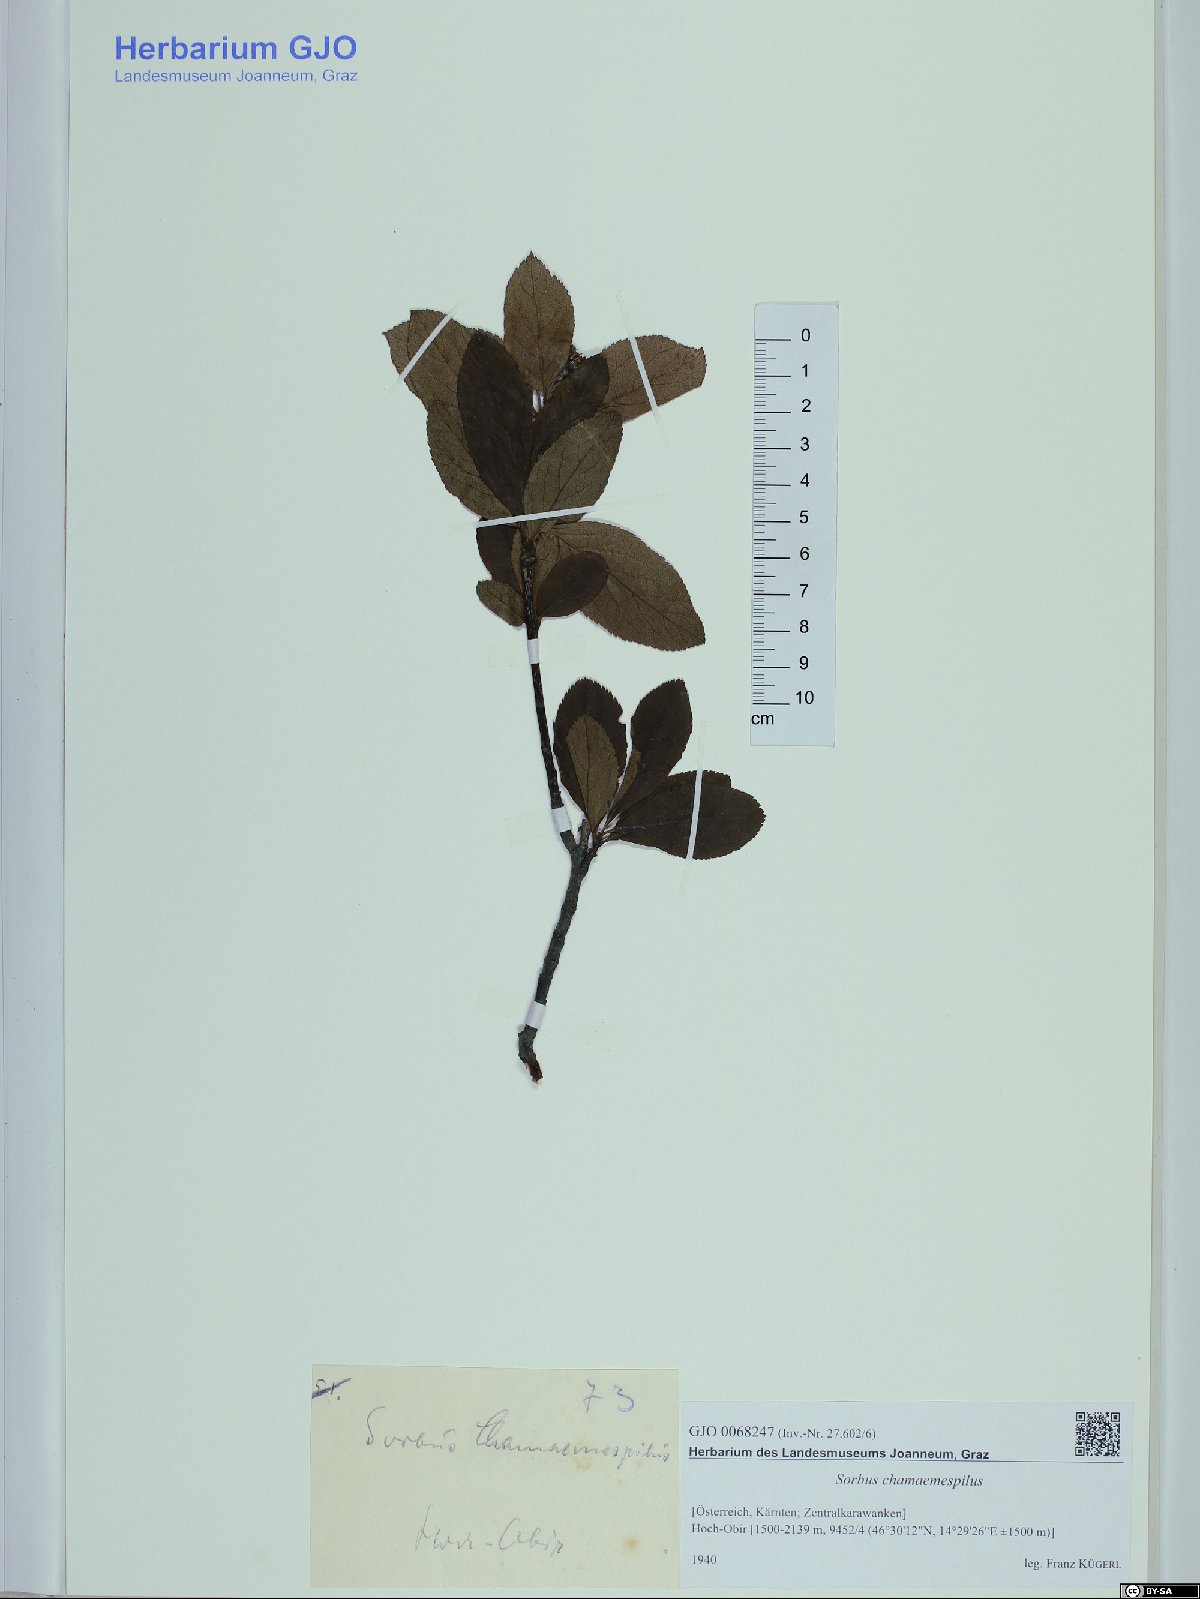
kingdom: Plantae
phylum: Tracheophyta
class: Magnoliopsida
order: Rosales
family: Rosaceae
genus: Chamaemespilus
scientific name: Chamaemespilus alpina
